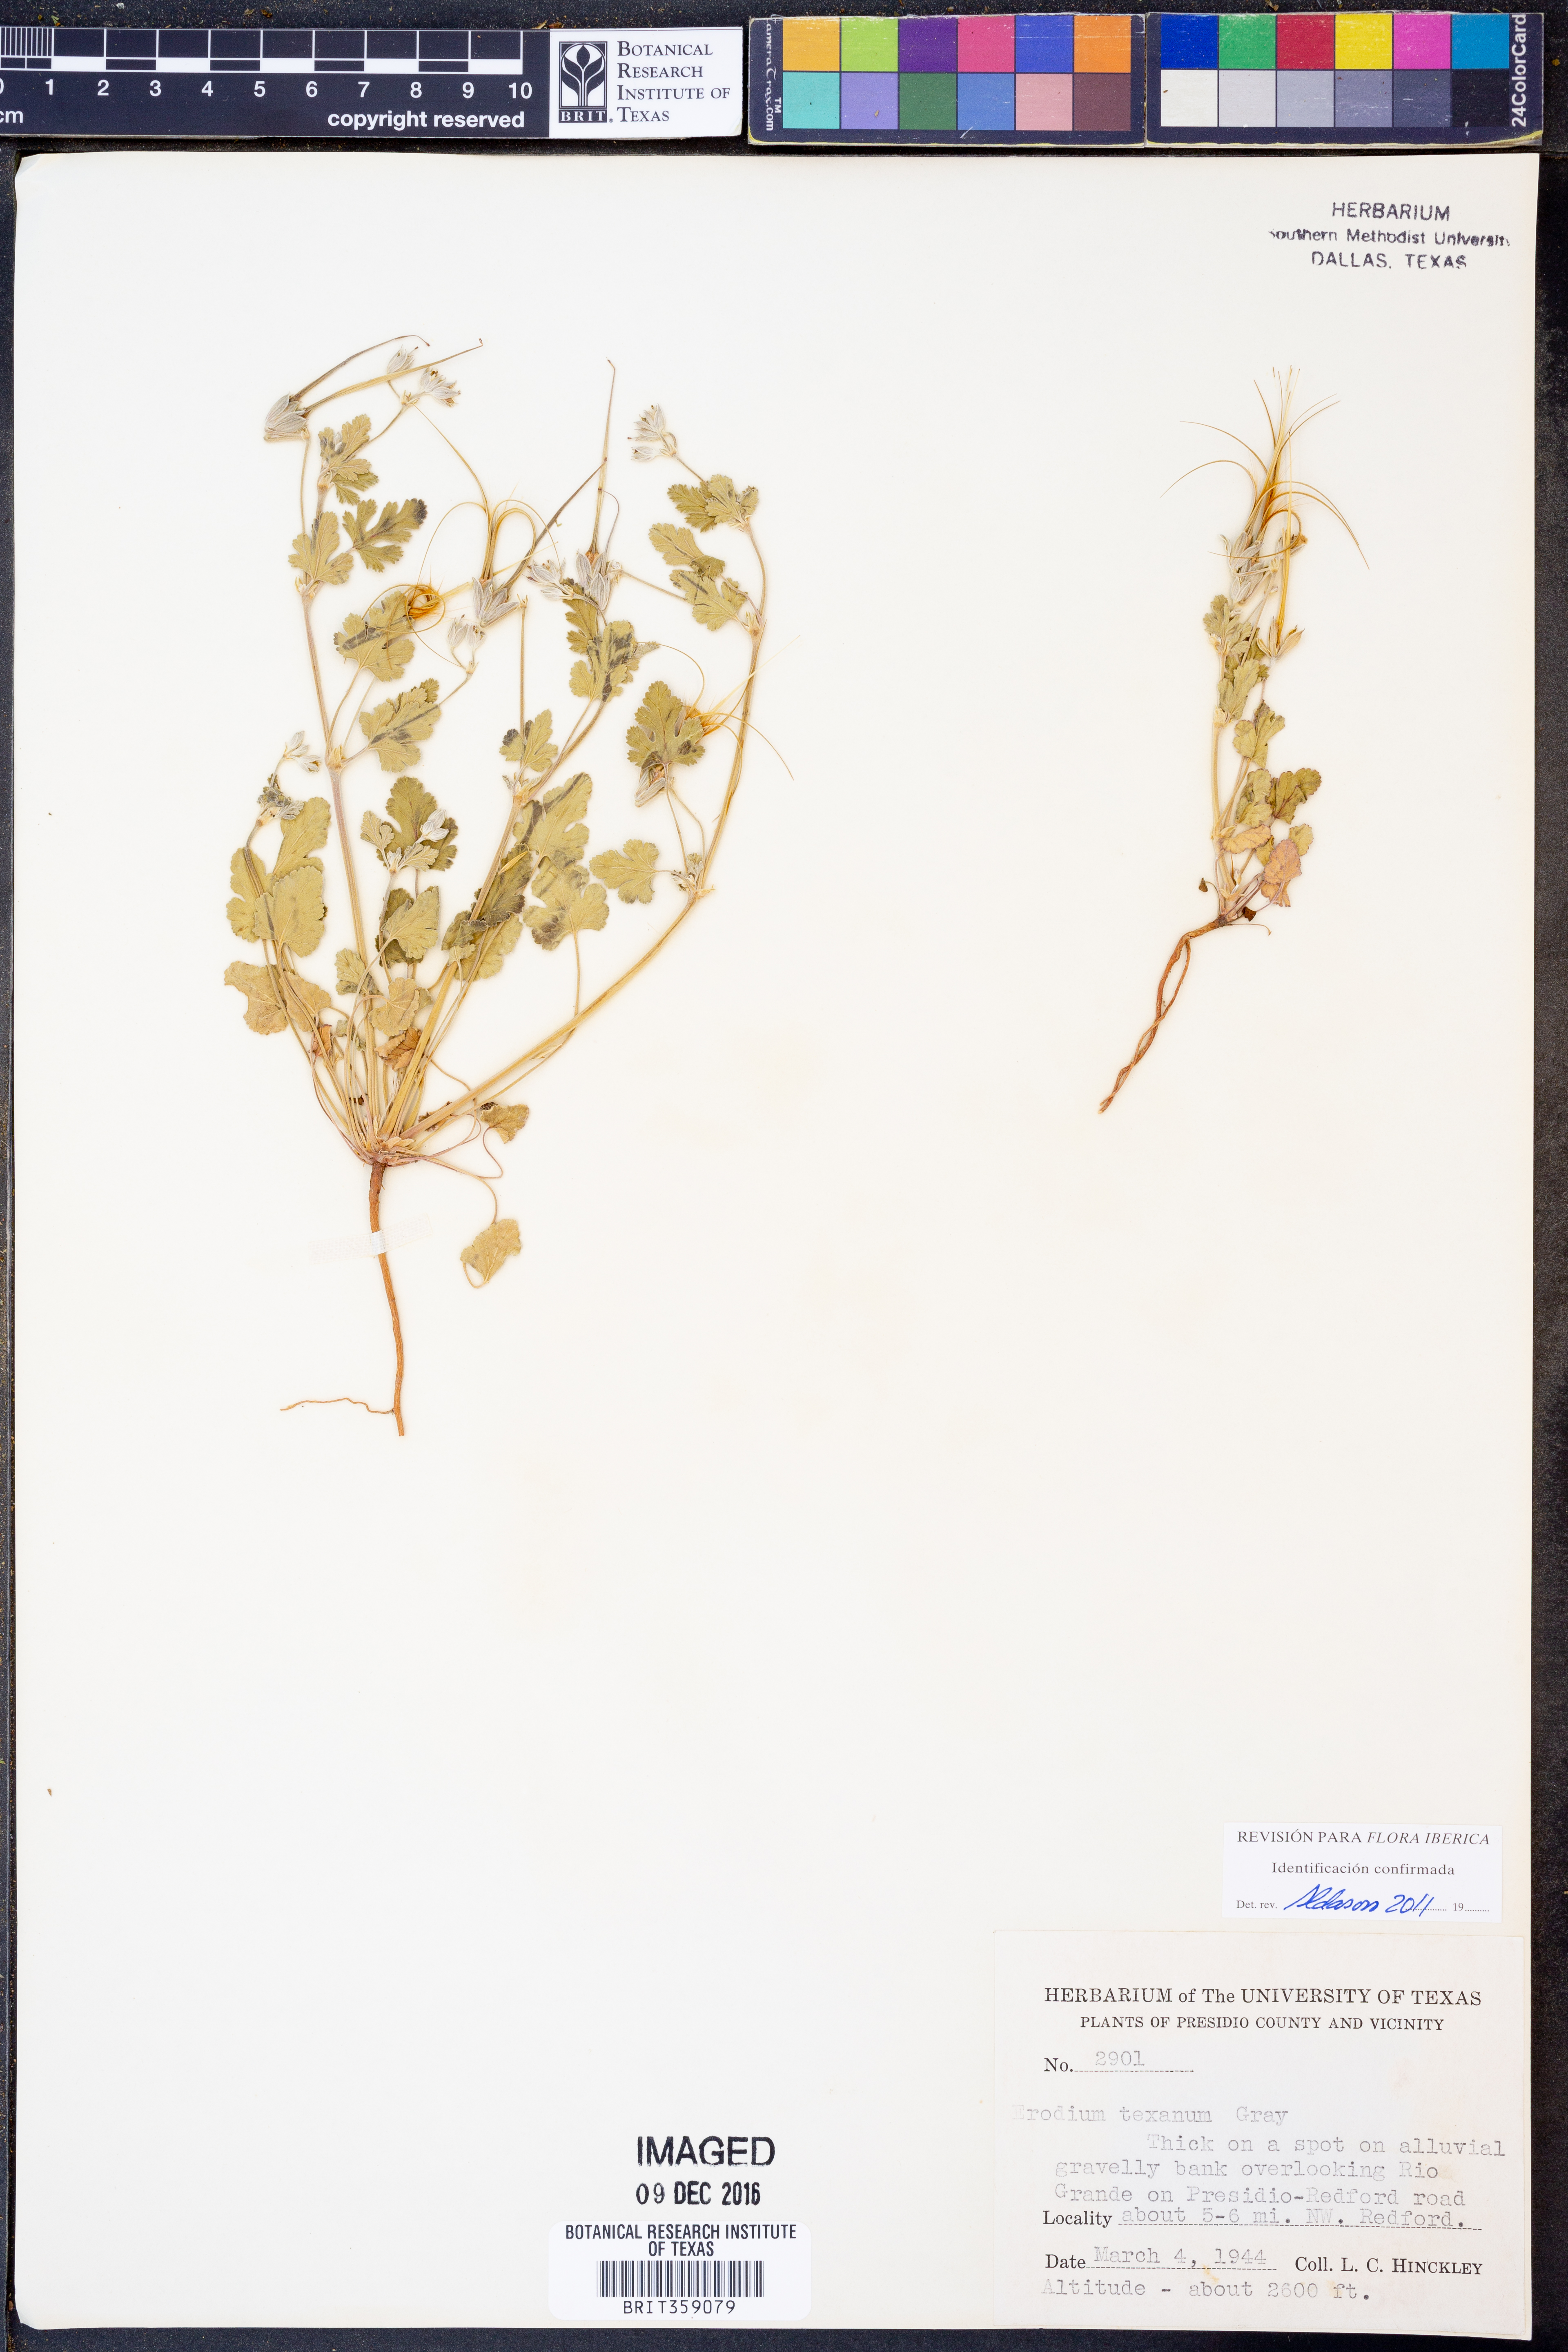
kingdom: Plantae
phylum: Tracheophyta
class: Magnoliopsida
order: Geraniales
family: Geraniaceae
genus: Erodium
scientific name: Erodium texanum
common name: Texas stork's-bill
